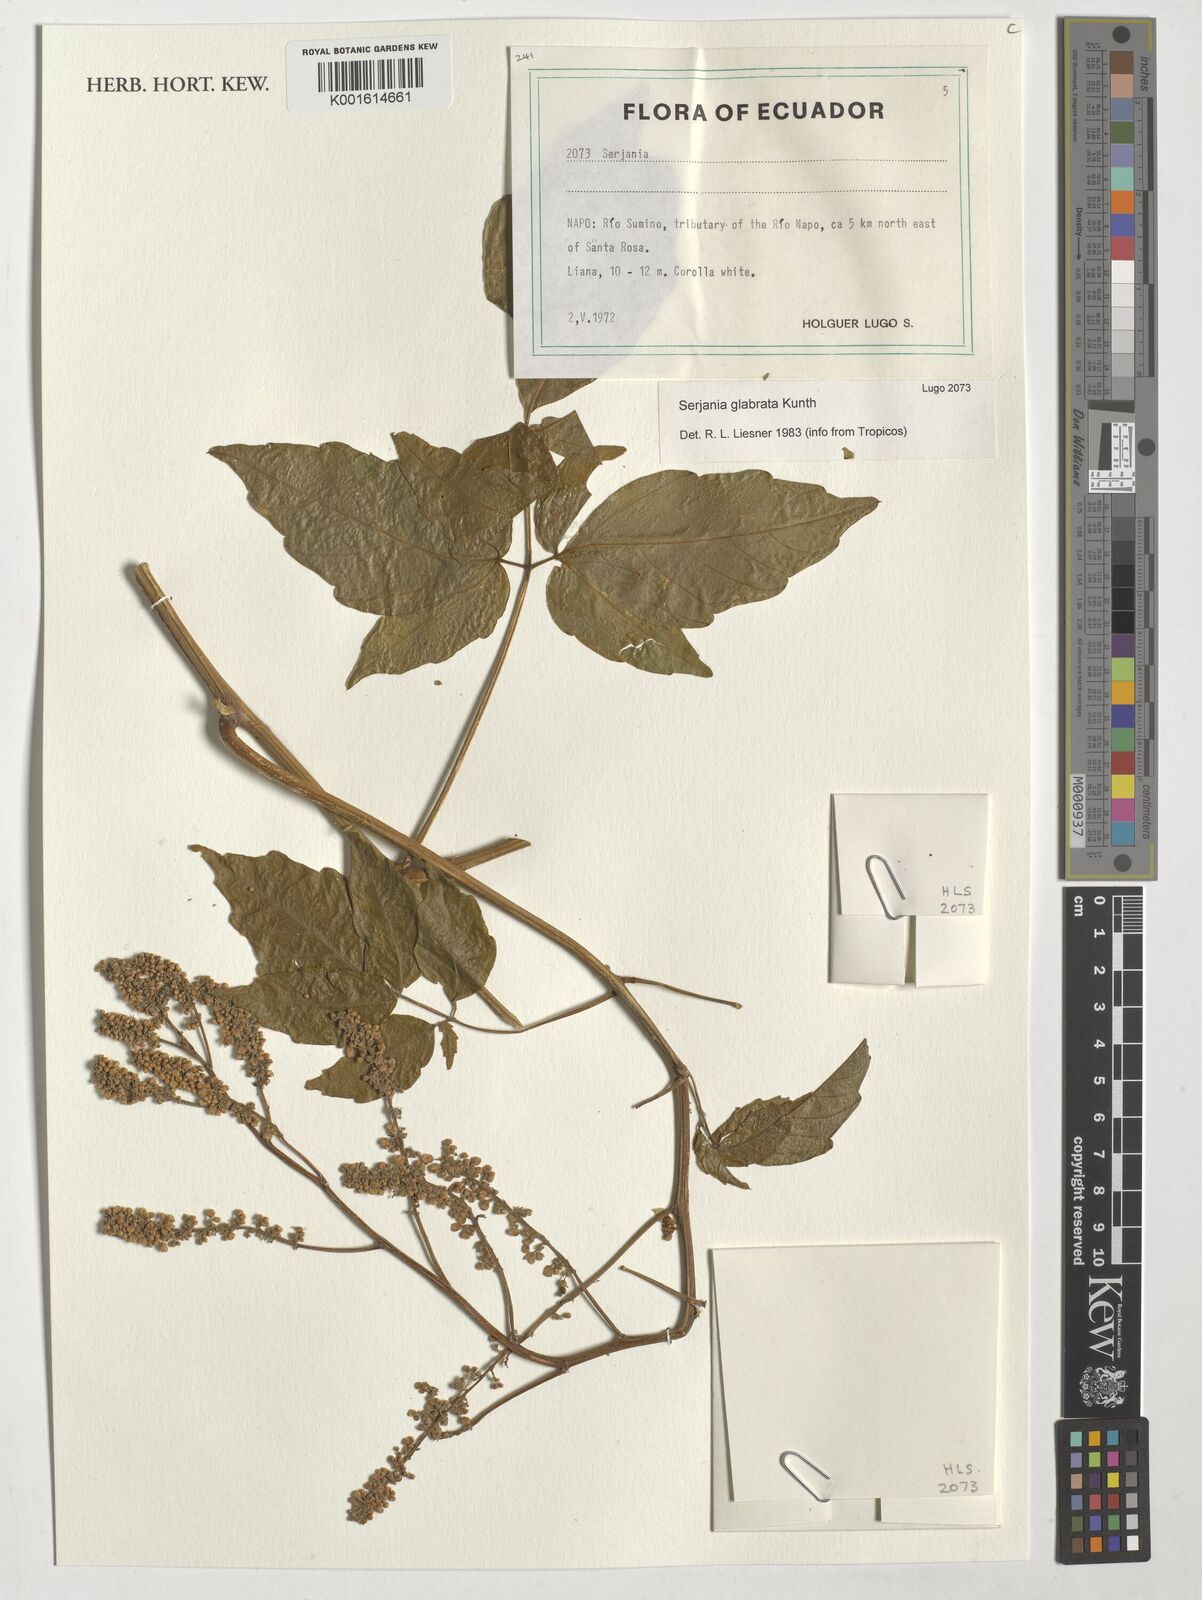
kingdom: Plantae
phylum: Tracheophyta
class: Magnoliopsida
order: Sapindales
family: Sapindaceae
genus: Serjania
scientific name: Serjania glabrata
